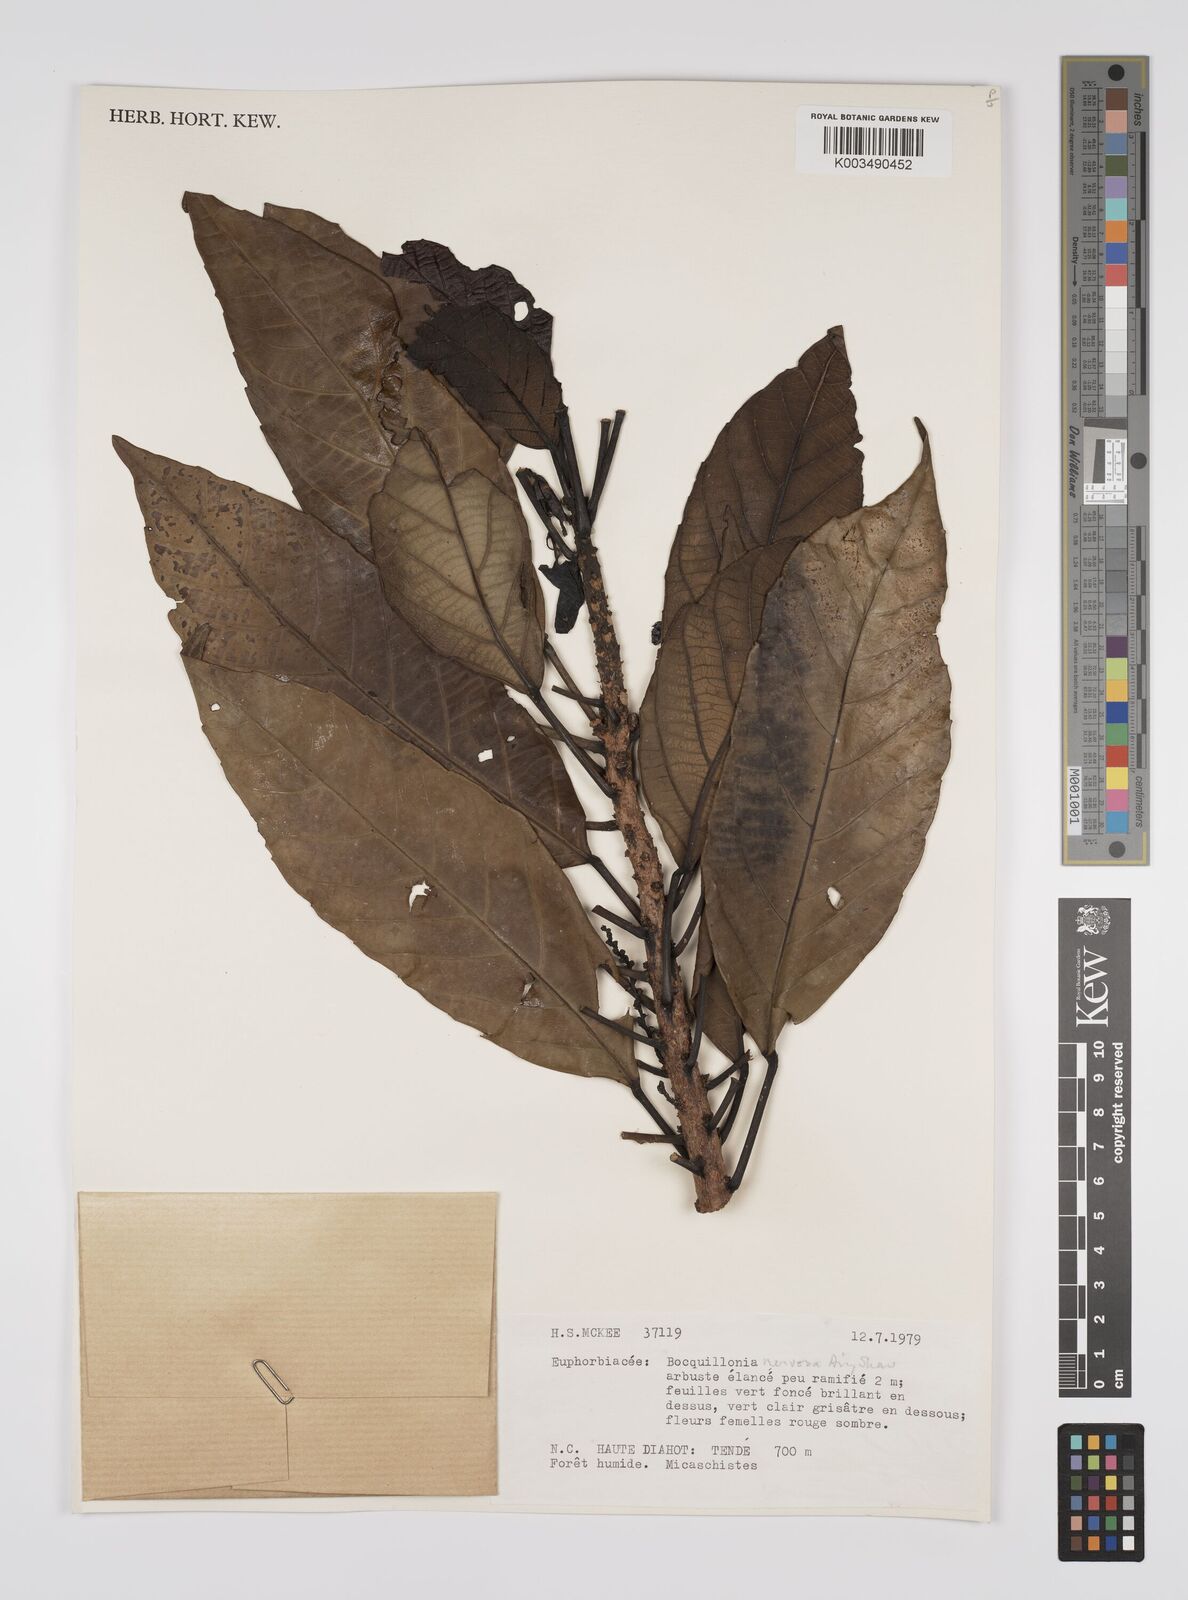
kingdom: Plantae
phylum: Tracheophyta
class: Magnoliopsida
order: Malpighiales
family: Euphorbiaceae
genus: Bocquillonia
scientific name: Bocquillonia nervosa
